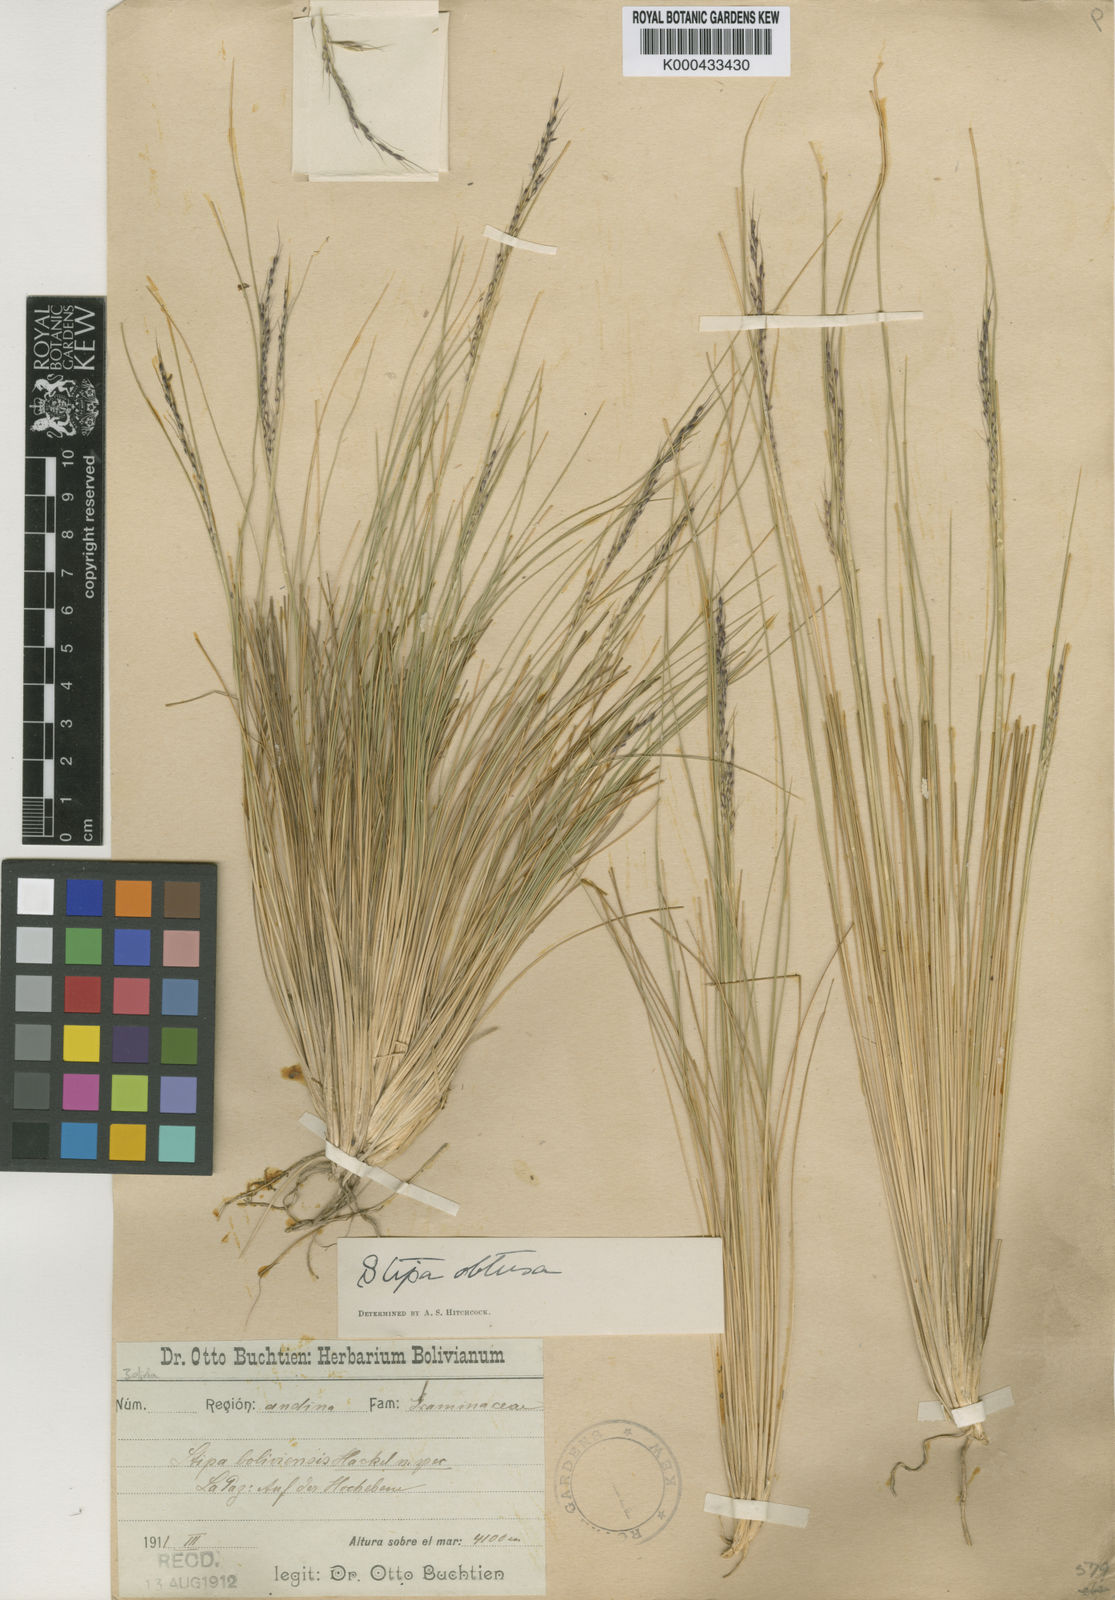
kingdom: Plantae
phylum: Tracheophyta
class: Liliopsida
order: Poales
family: Poaceae
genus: Stipa
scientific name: Stipa obtusa
